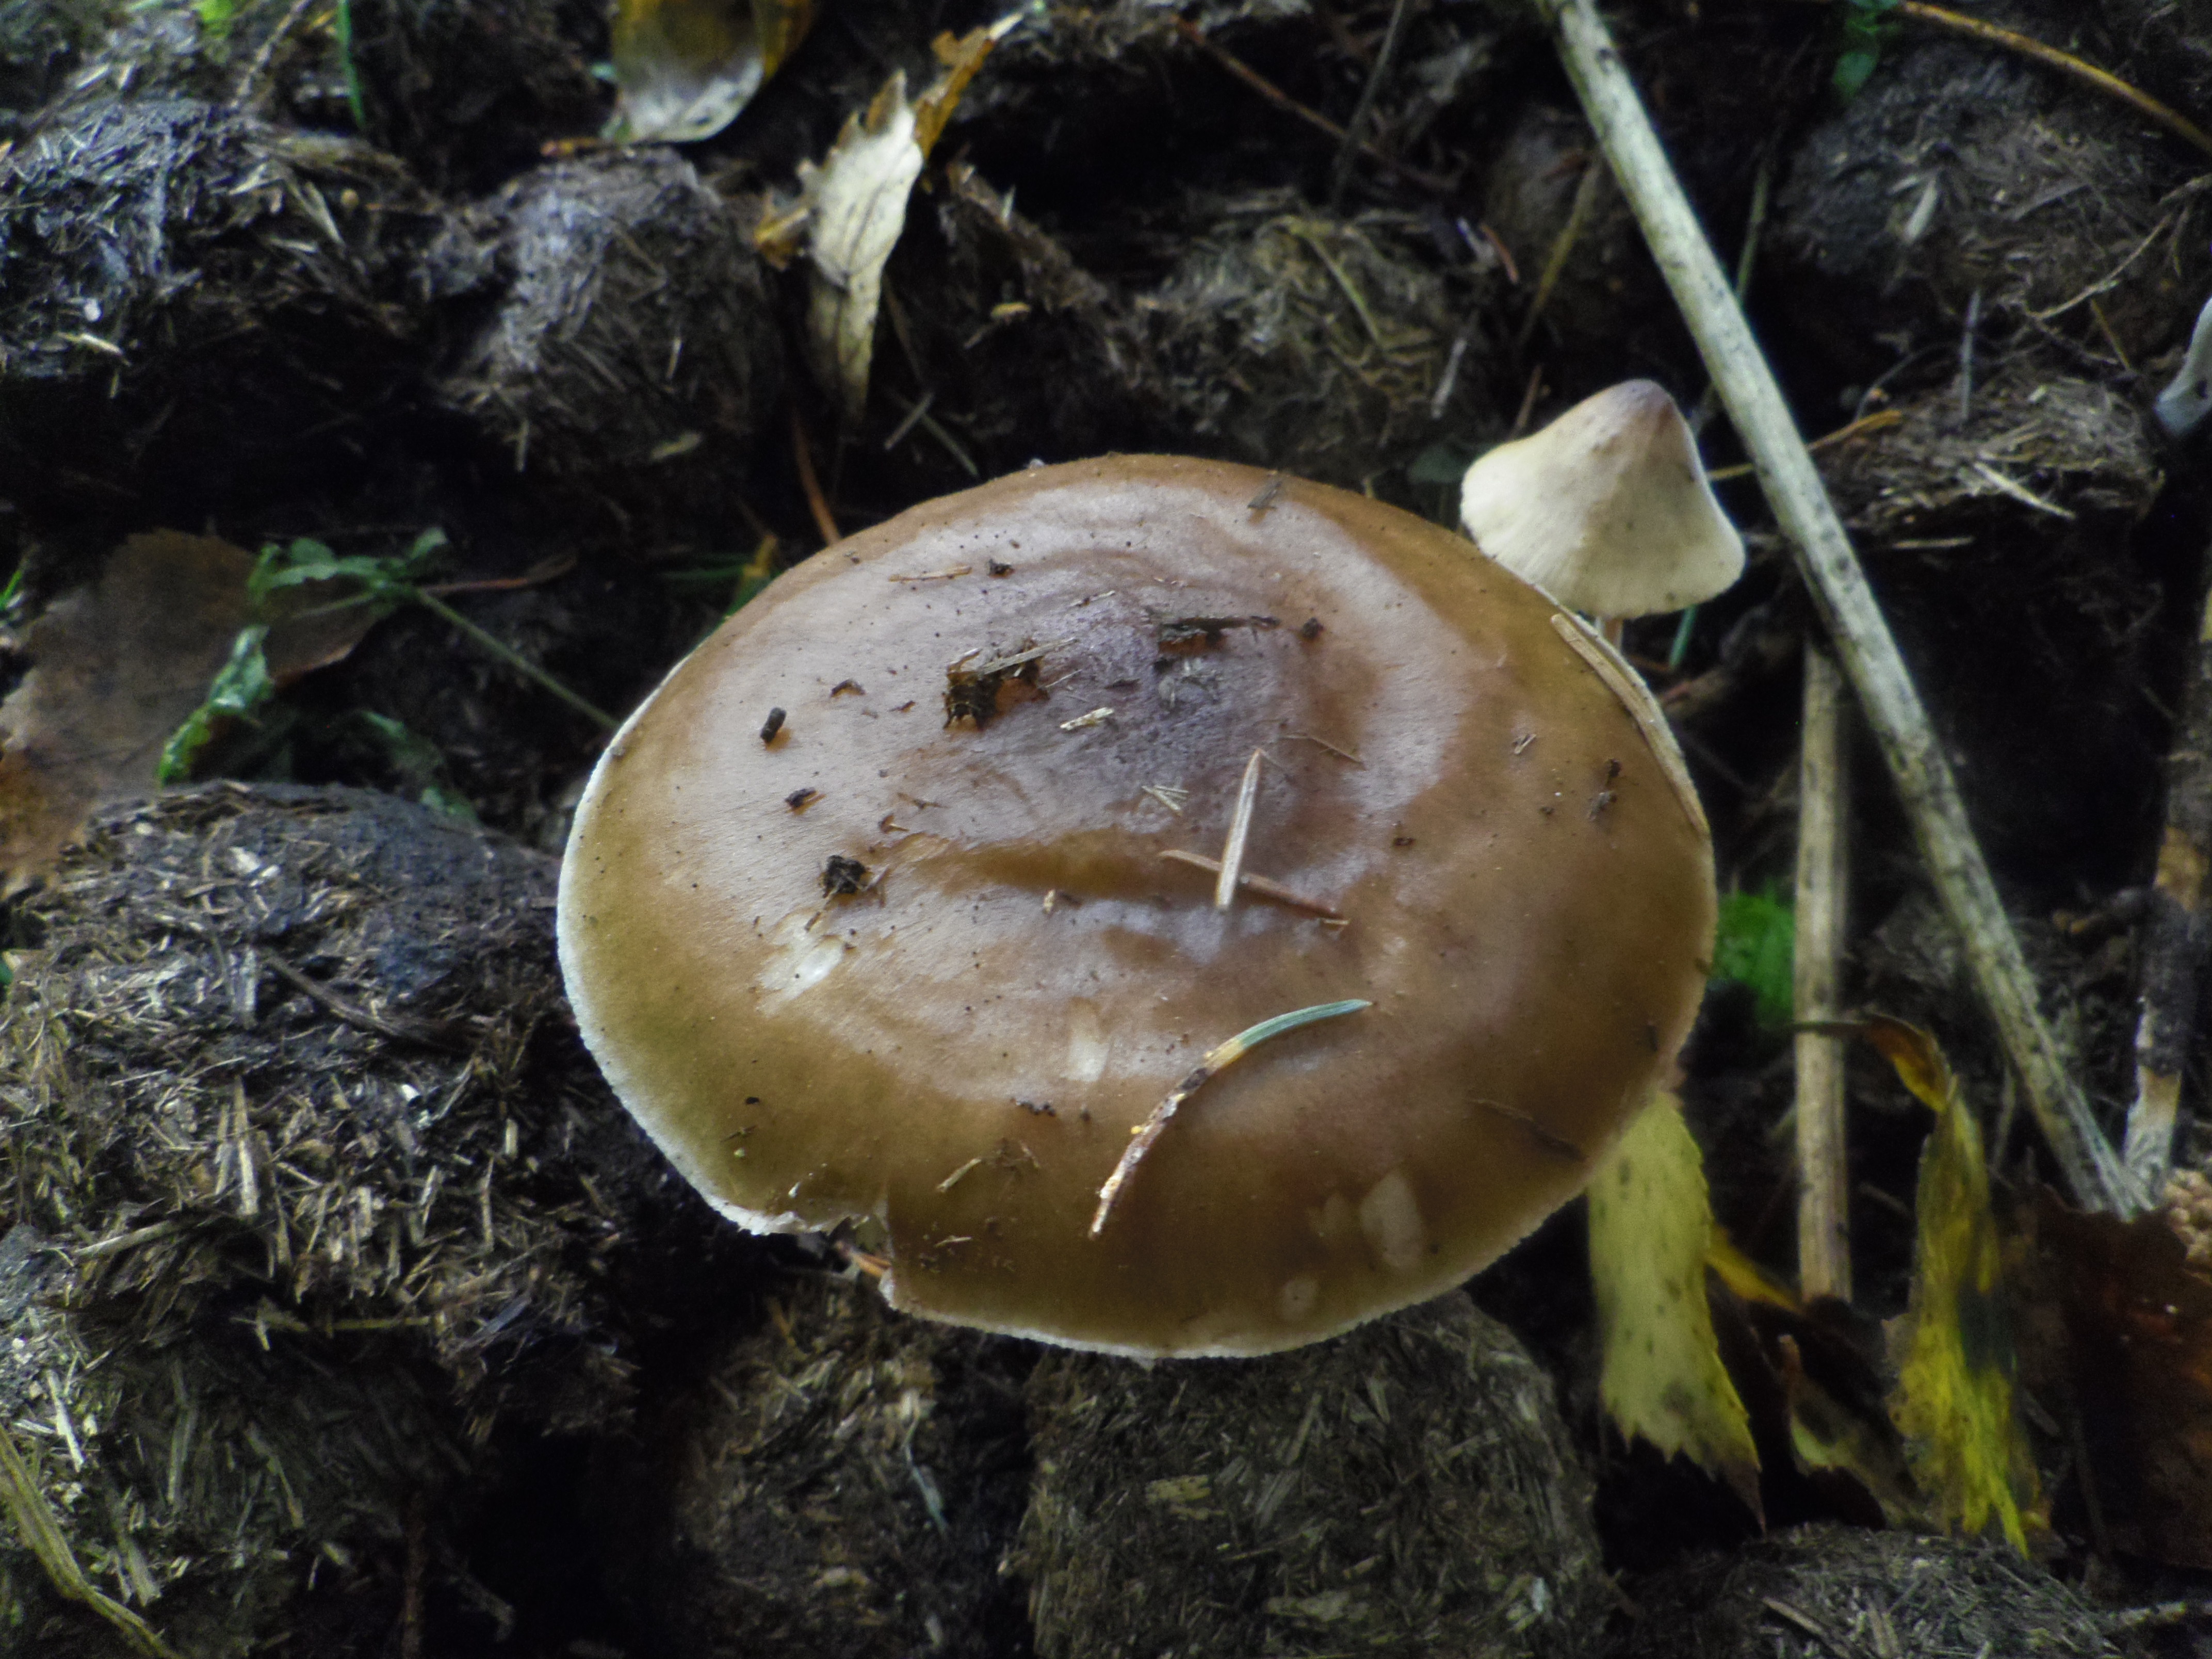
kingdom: Fungi
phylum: Basidiomycota
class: Agaricomycetes
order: Agaricales
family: Pluteaceae
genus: Pluteus
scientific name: Pluteus cervinus
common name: Deer shield
